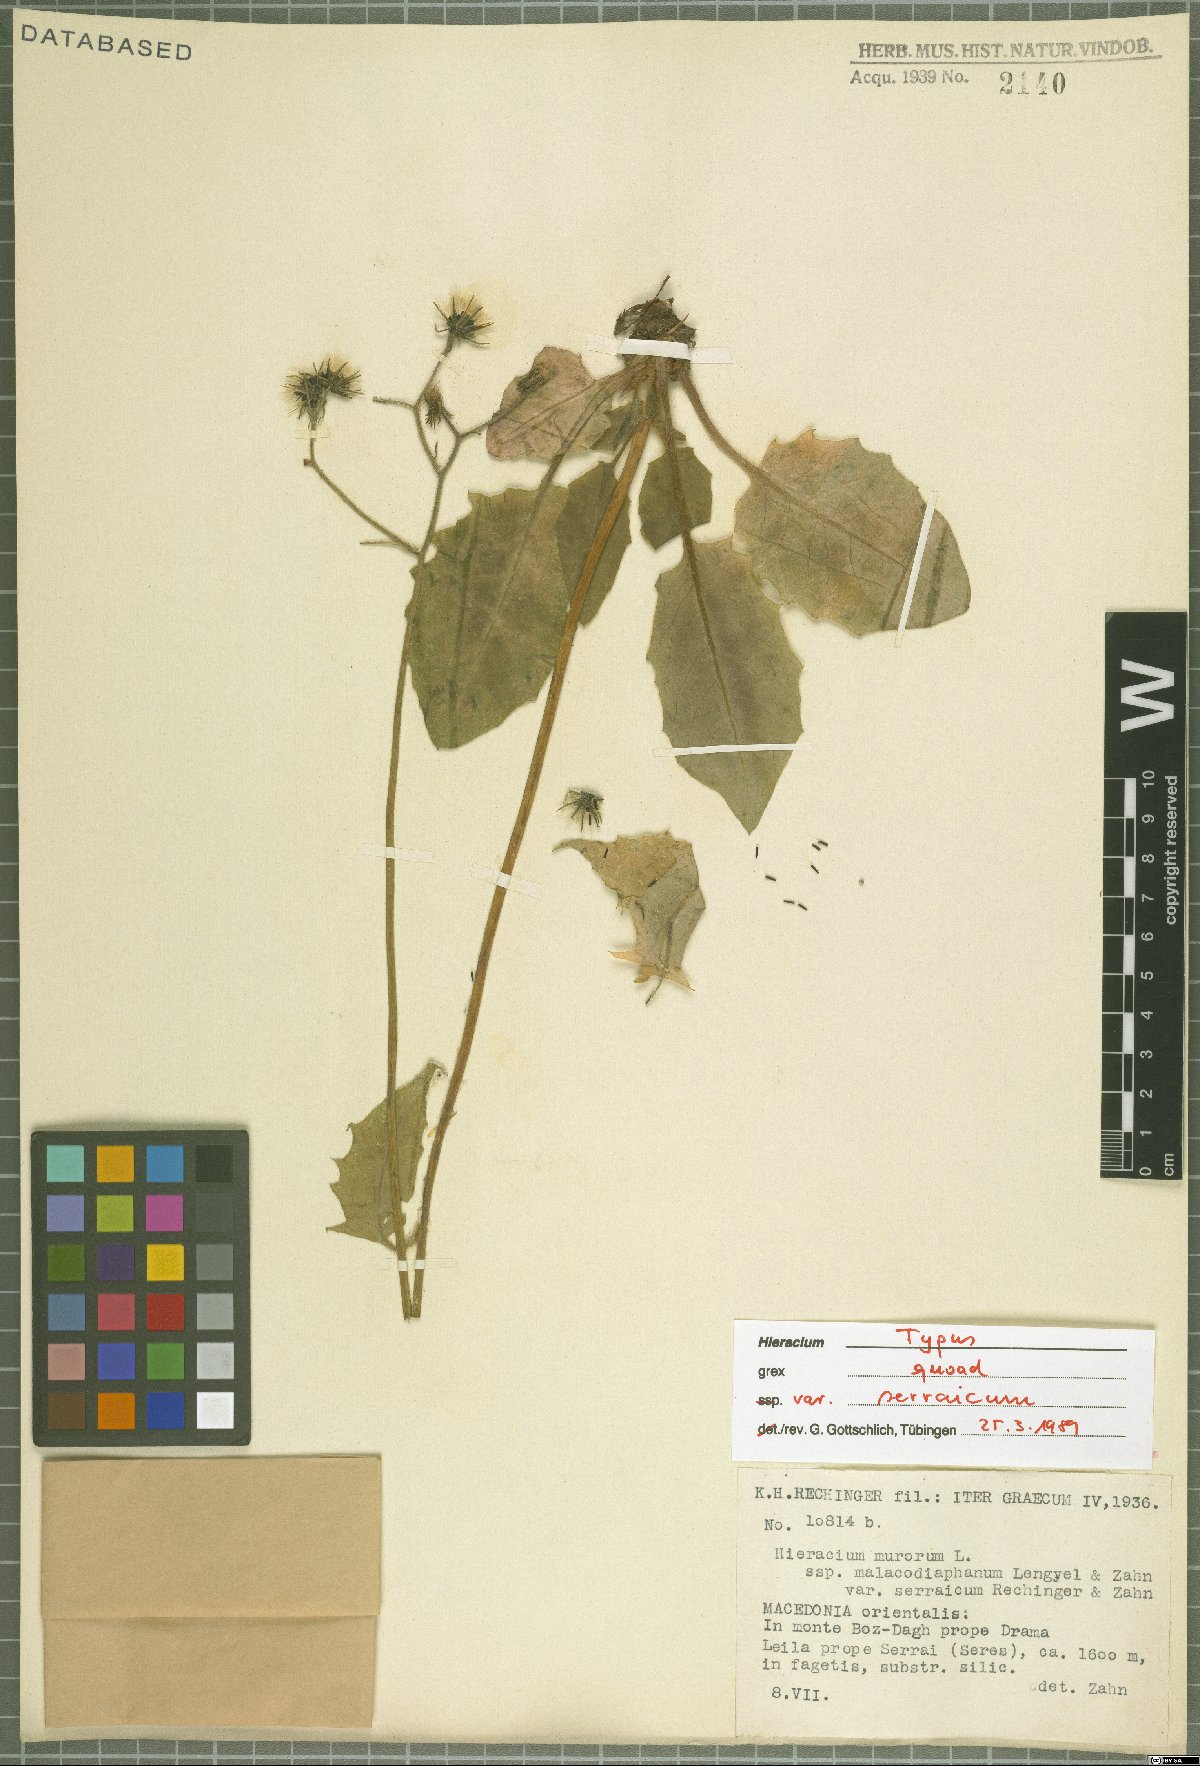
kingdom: Plantae
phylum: Tracheophyta
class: Magnoliopsida
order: Asterales
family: Asteraceae
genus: Hieracium
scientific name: Hieracium murorum
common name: Wall hawkweed
